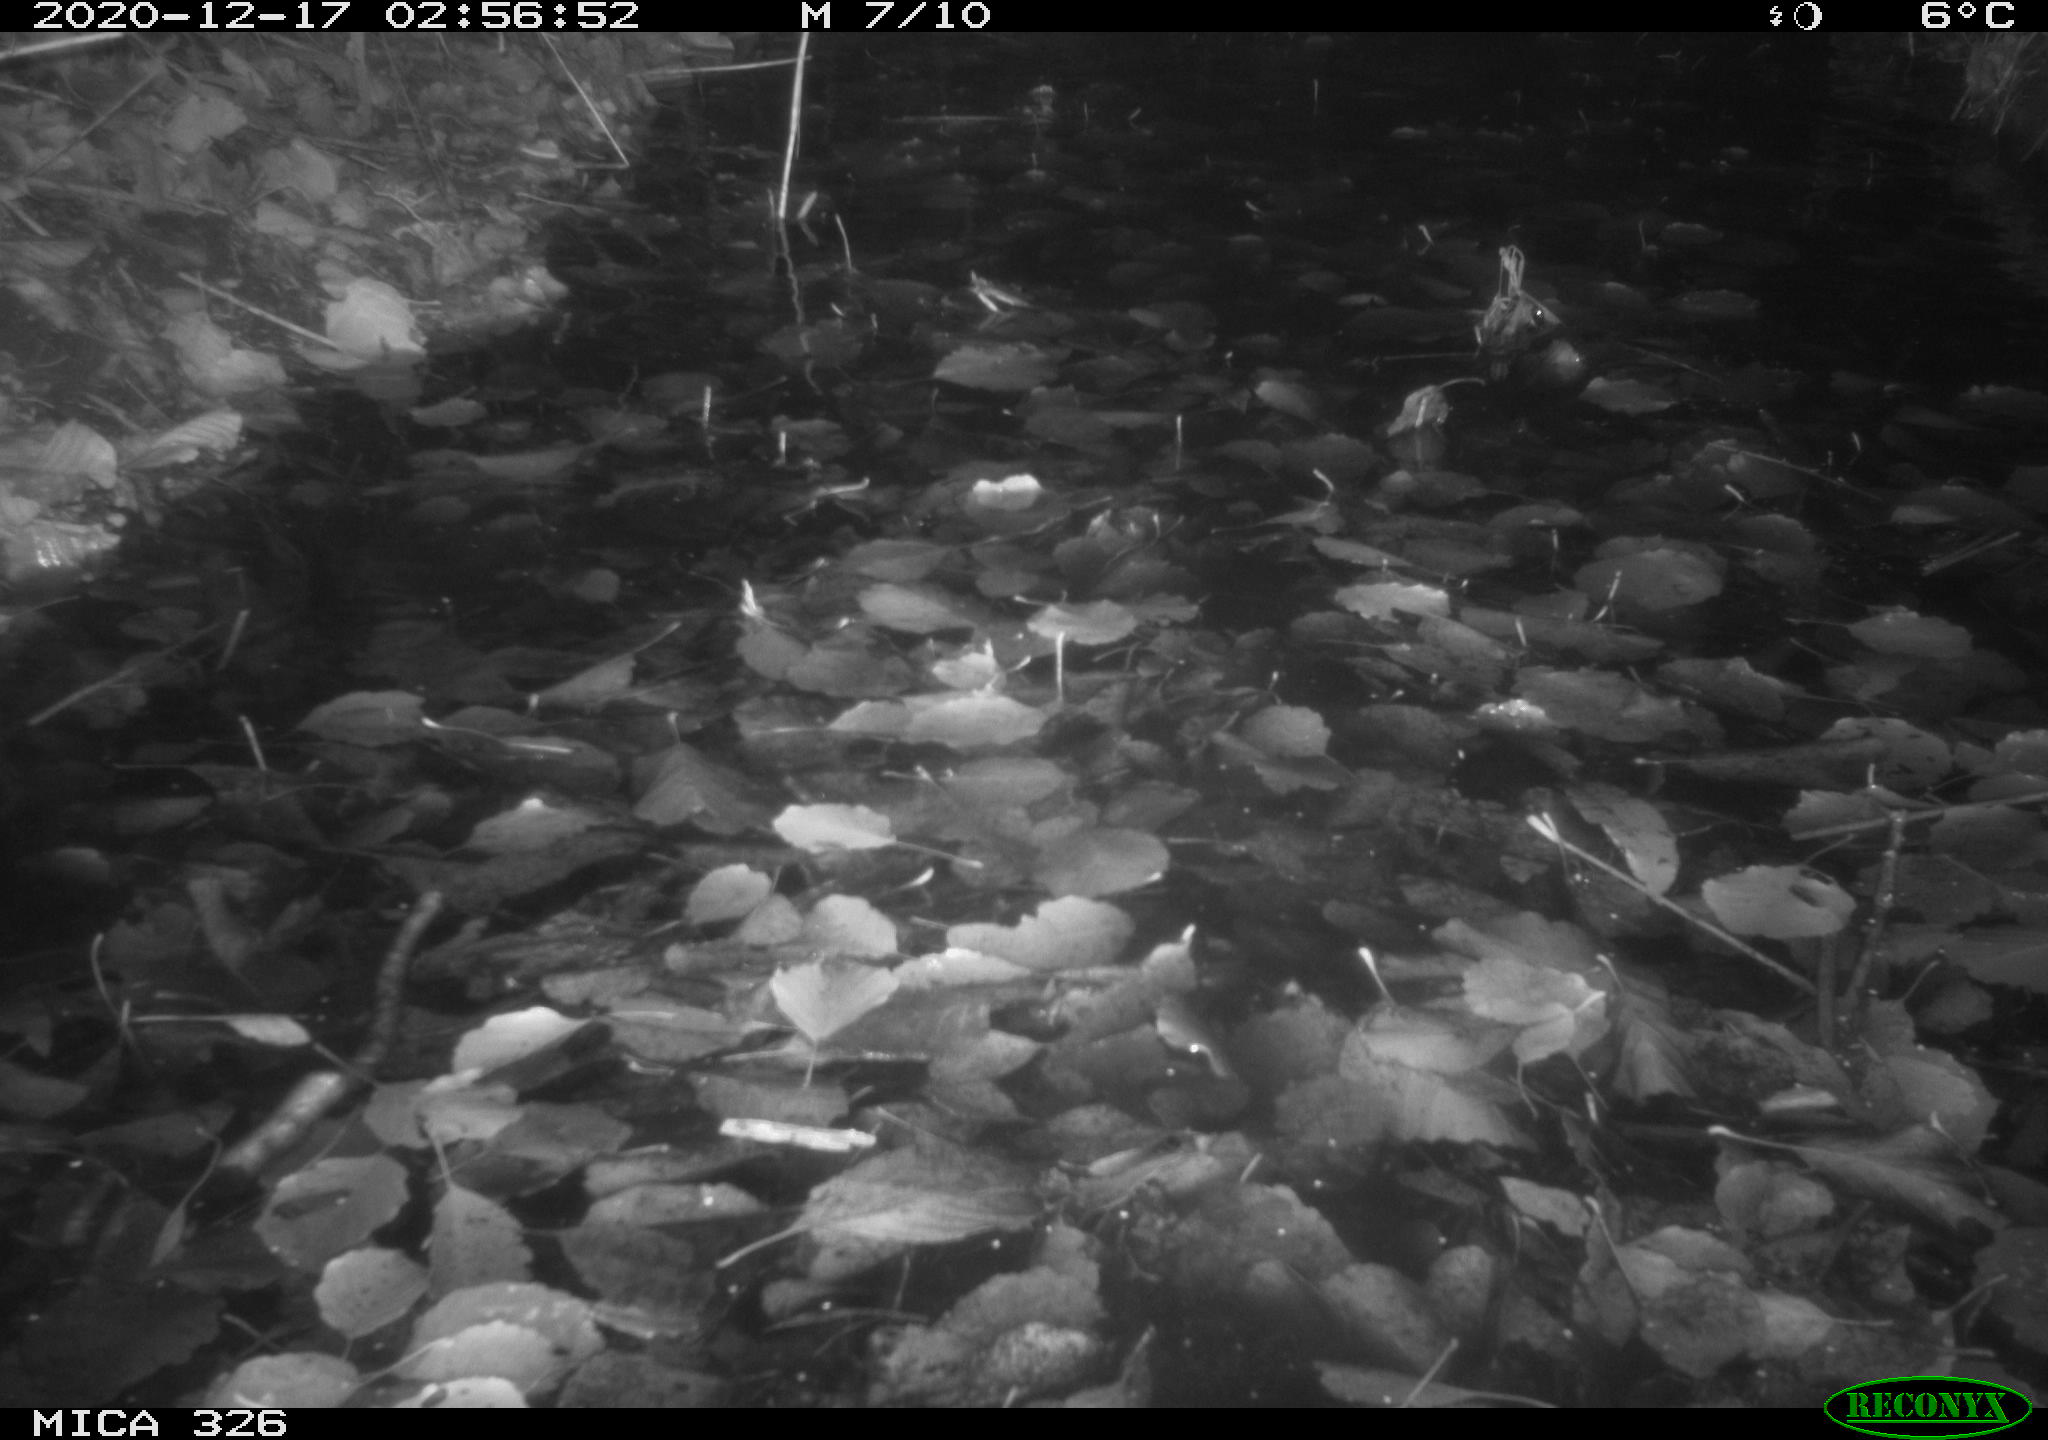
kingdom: Animalia
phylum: Chordata
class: Mammalia
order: Carnivora
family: Mustelidae
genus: Lutra
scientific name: Lutra lutra
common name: European otter
